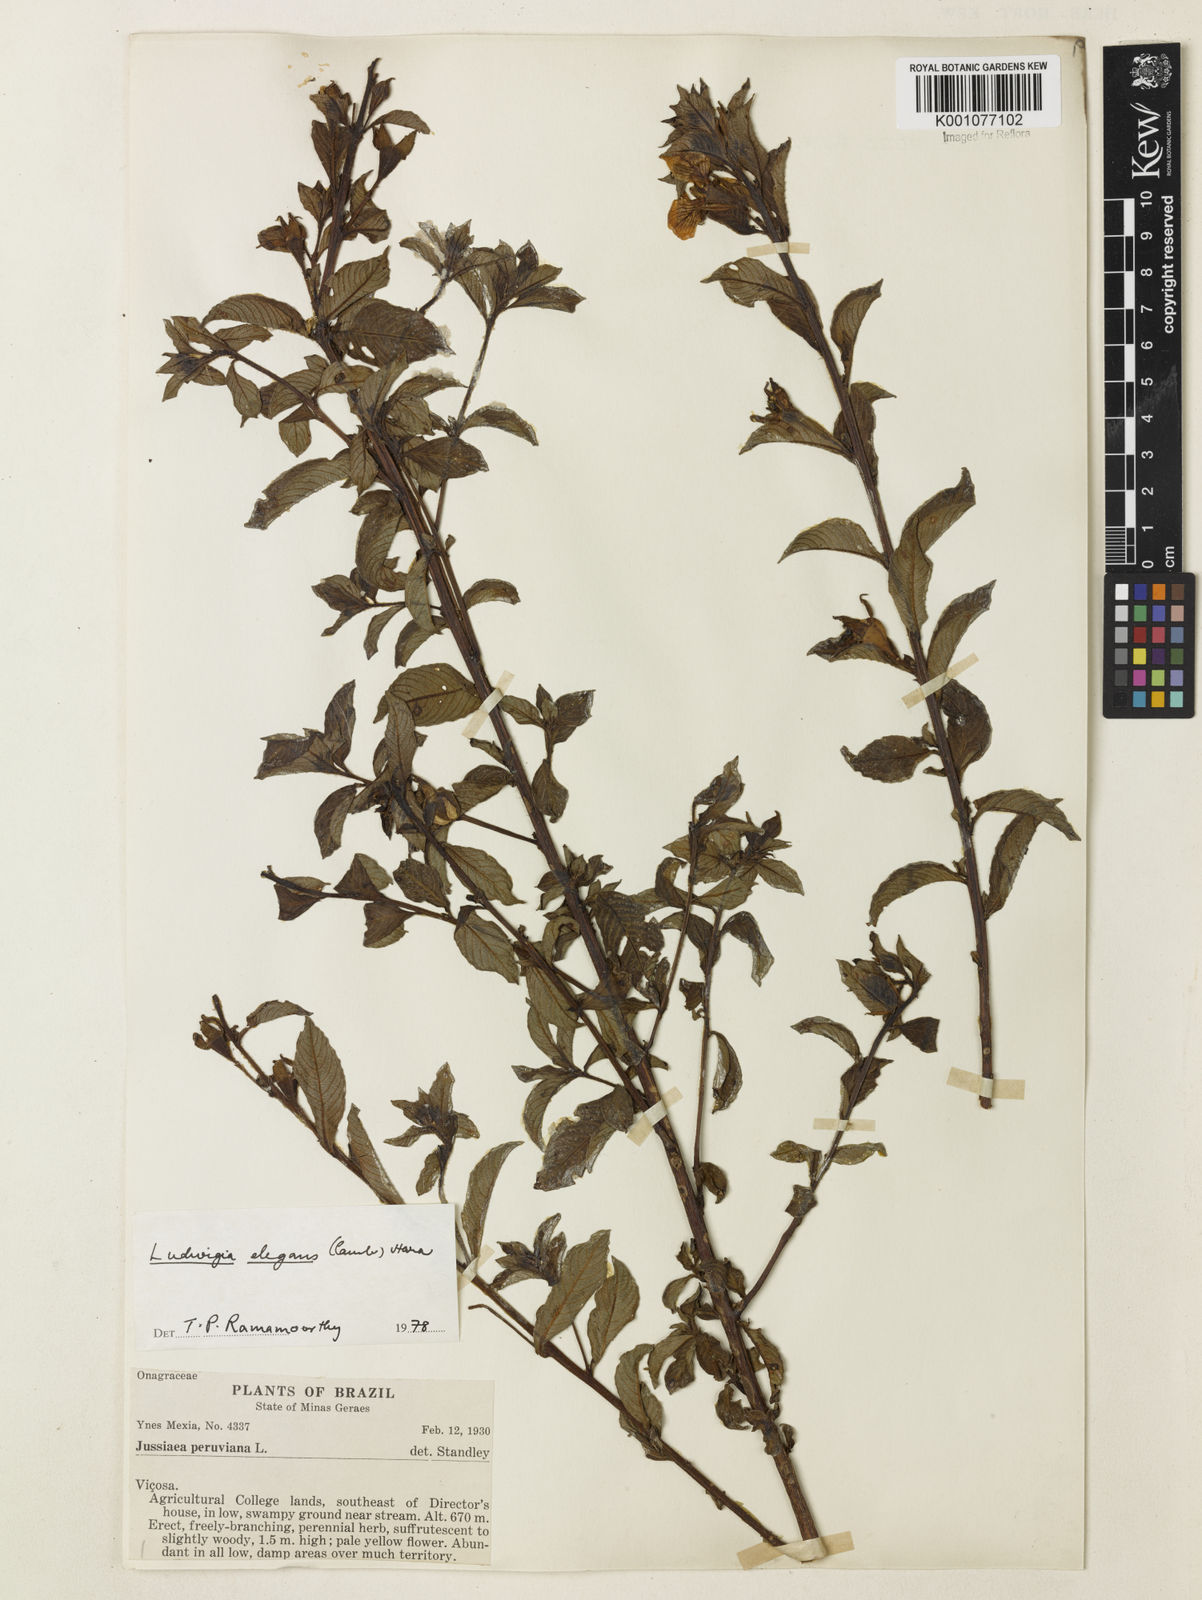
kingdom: Plantae
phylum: Tracheophyta
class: Magnoliopsida
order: Myrtales
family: Onagraceae
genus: Ludwigia
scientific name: Ludwigia elegans
